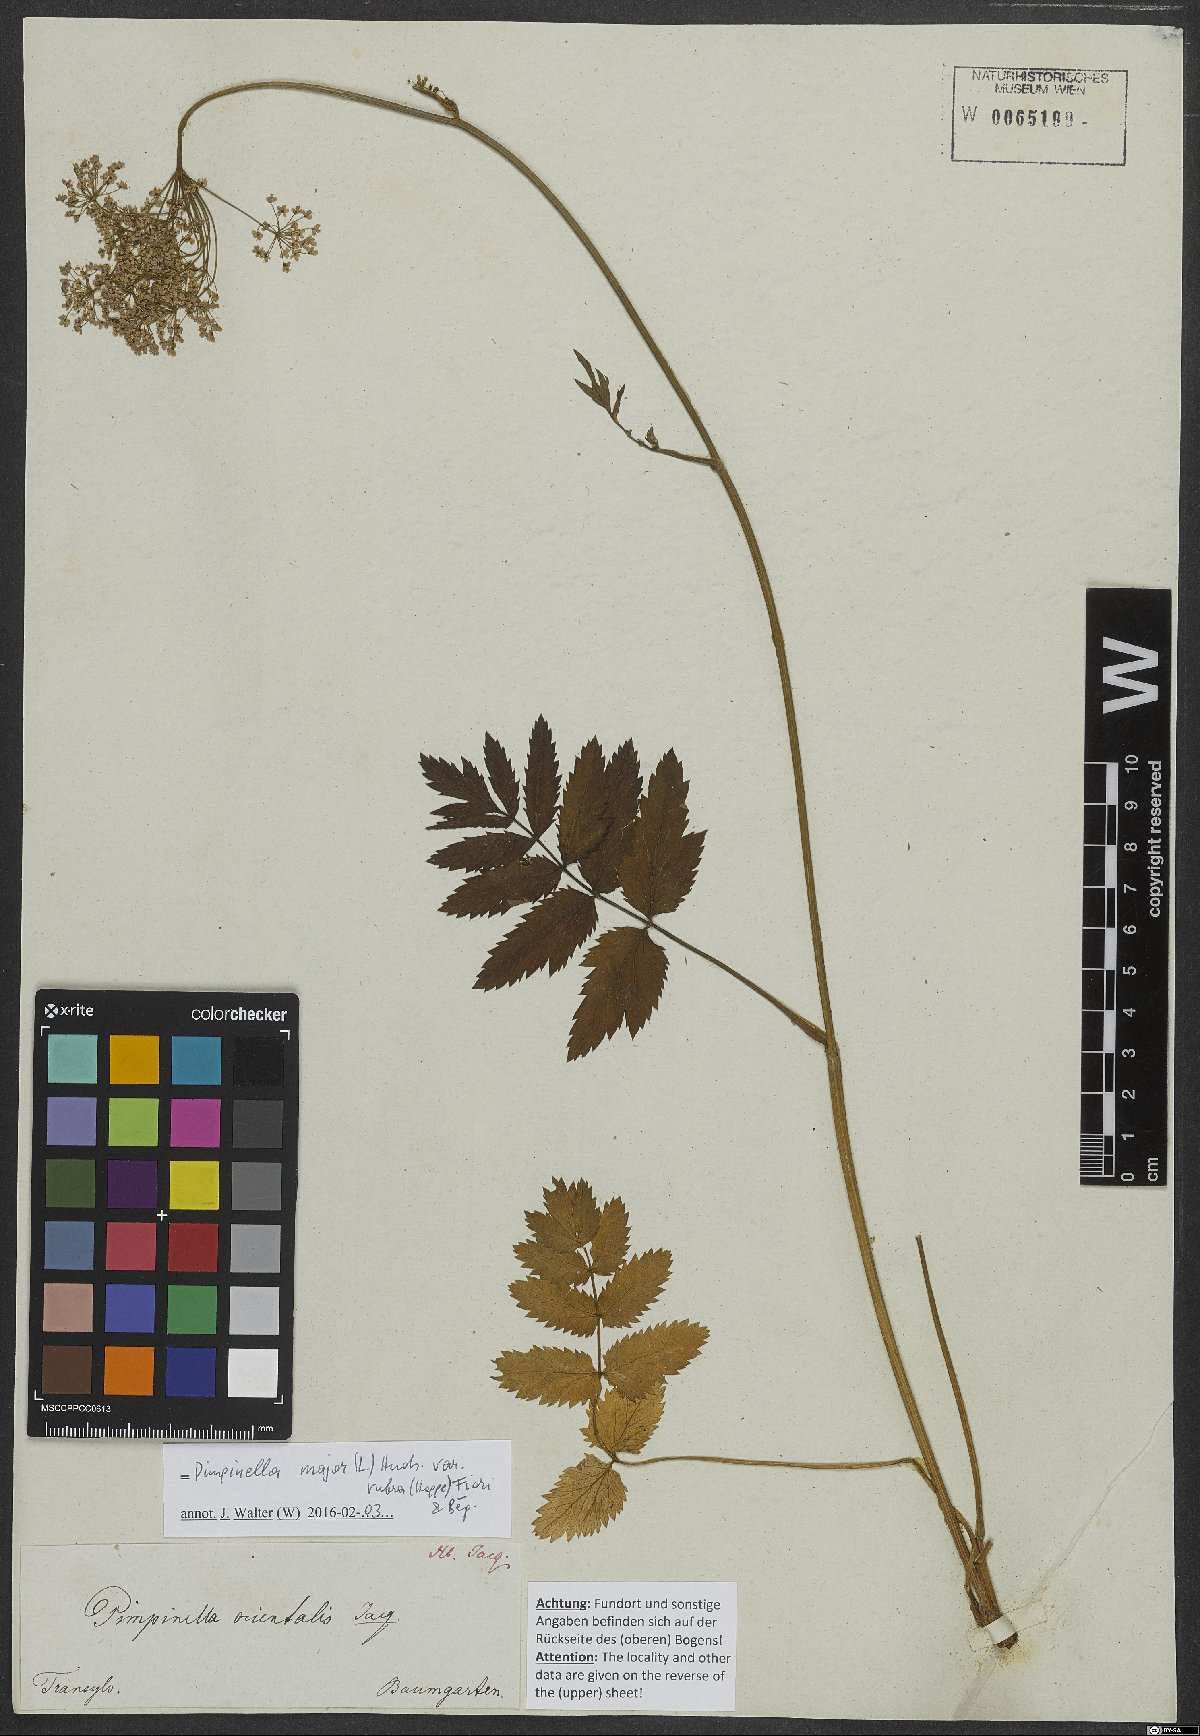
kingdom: Plantae
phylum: Tracheophyta
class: Magnoliopsida
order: Apiales
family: Apiaceae
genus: Pimpinella
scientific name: Pimpinella major
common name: Greater burnet-saxifrage
